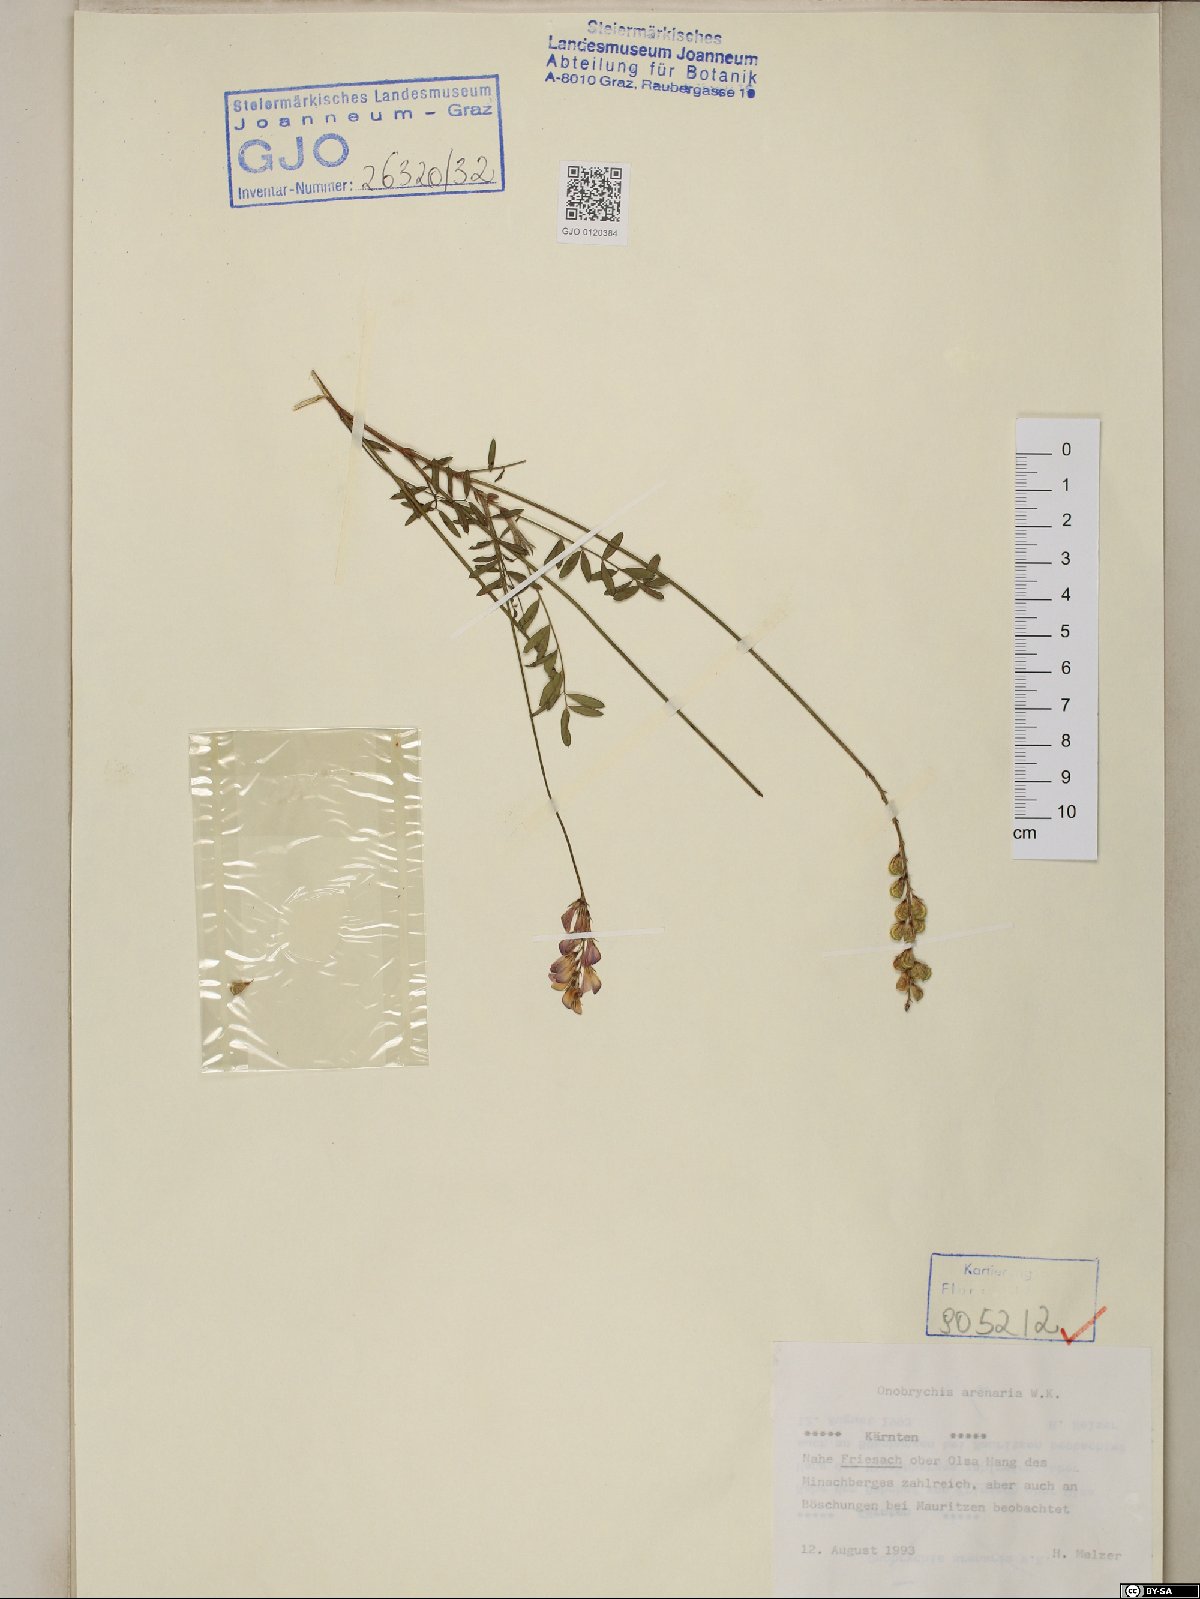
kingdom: Plantae
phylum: Tracheophyta
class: Magnoliopsida
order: Fabales
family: Fabaceae
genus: Onobrychis
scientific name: Onobrychis arenaria
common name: Sand esparcet
